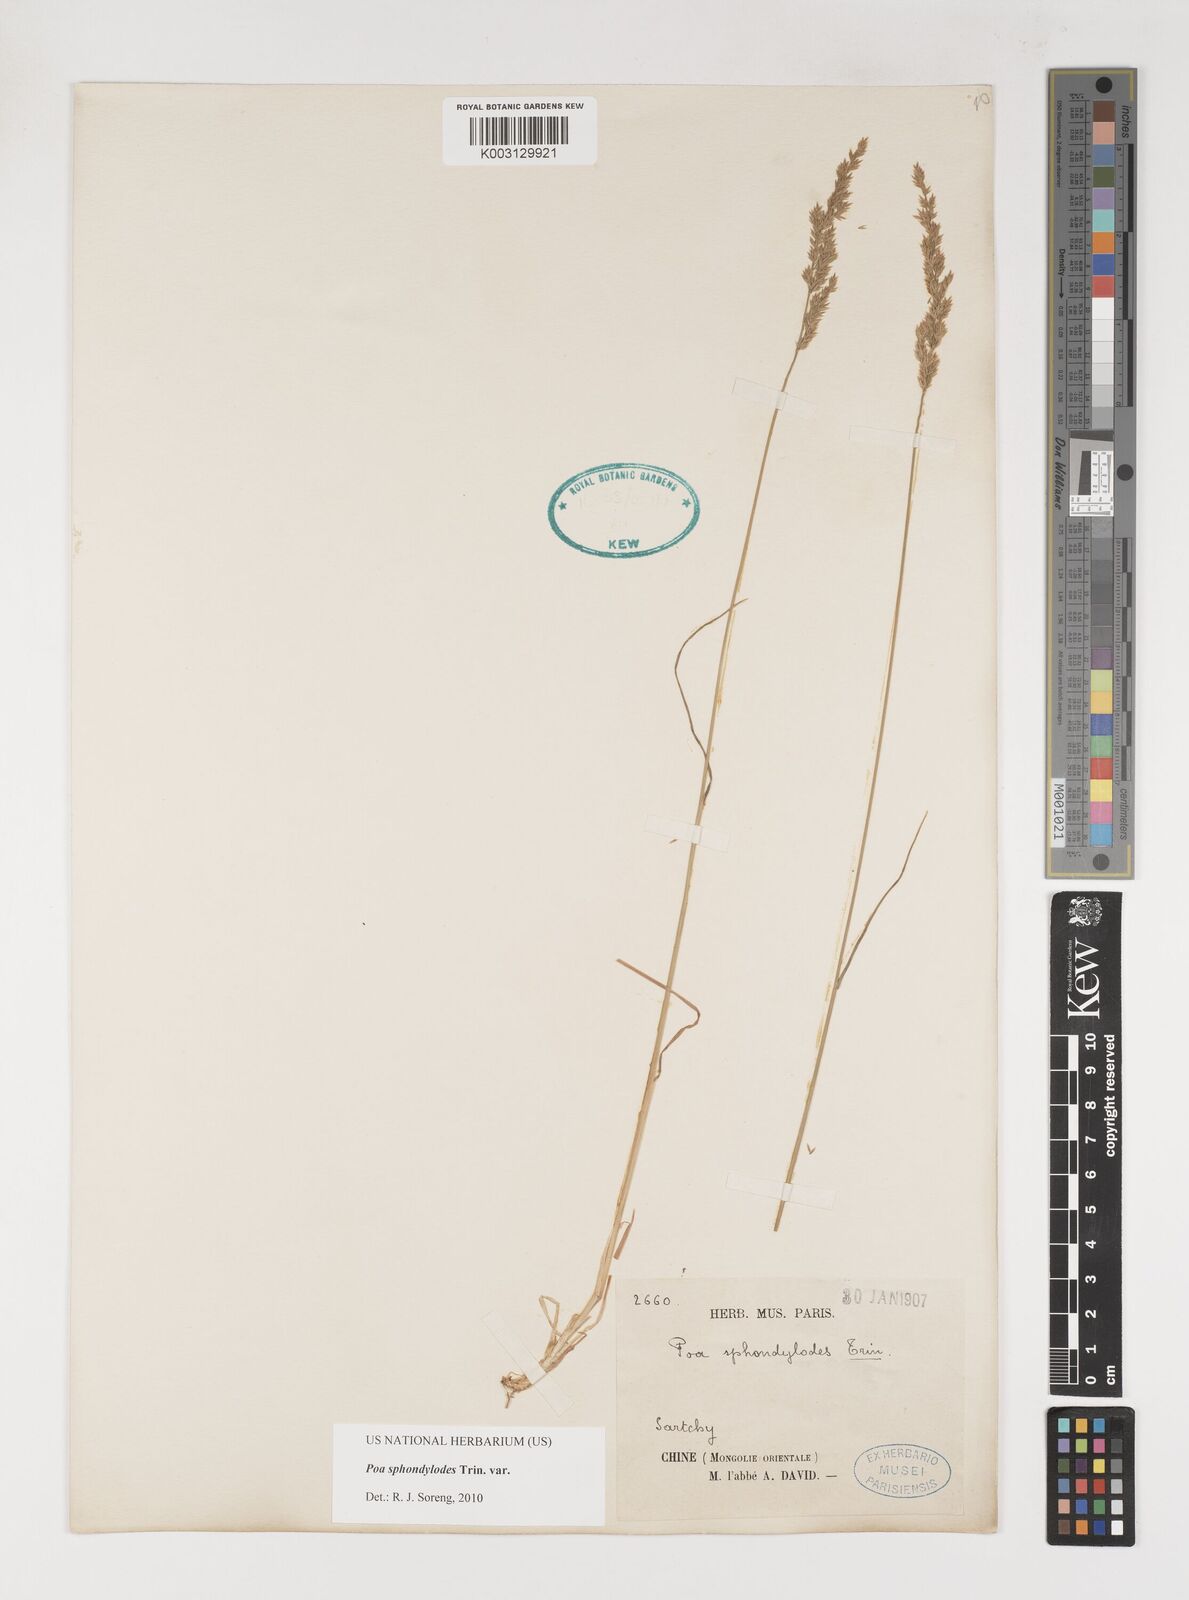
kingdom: Plantae
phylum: Tracheophyta
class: Liliopsida
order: Poales
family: Poaceae
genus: Poa
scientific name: Poa sphondylodes
